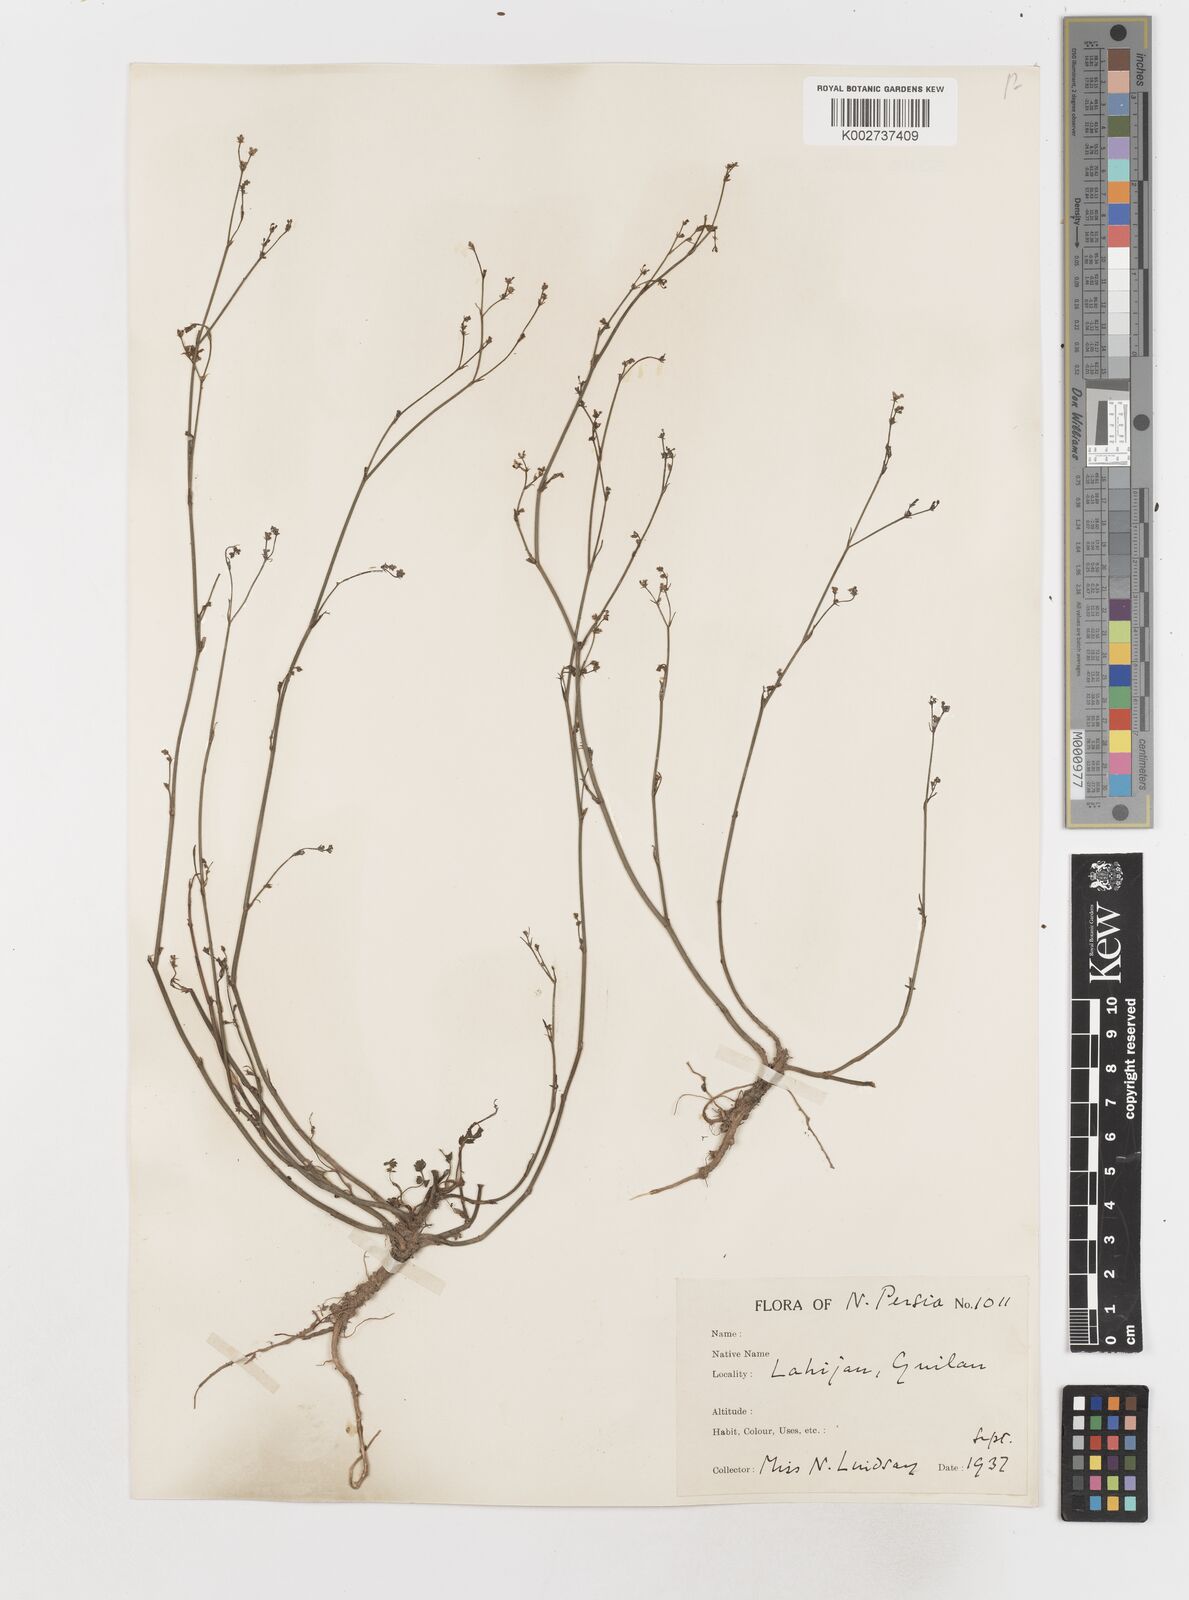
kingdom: Plantae
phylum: Tracheophyta
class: Magnoliopsida
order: Apiales
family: Apiaceae
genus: Elaeosticta
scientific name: Elaeosticta meifolia
